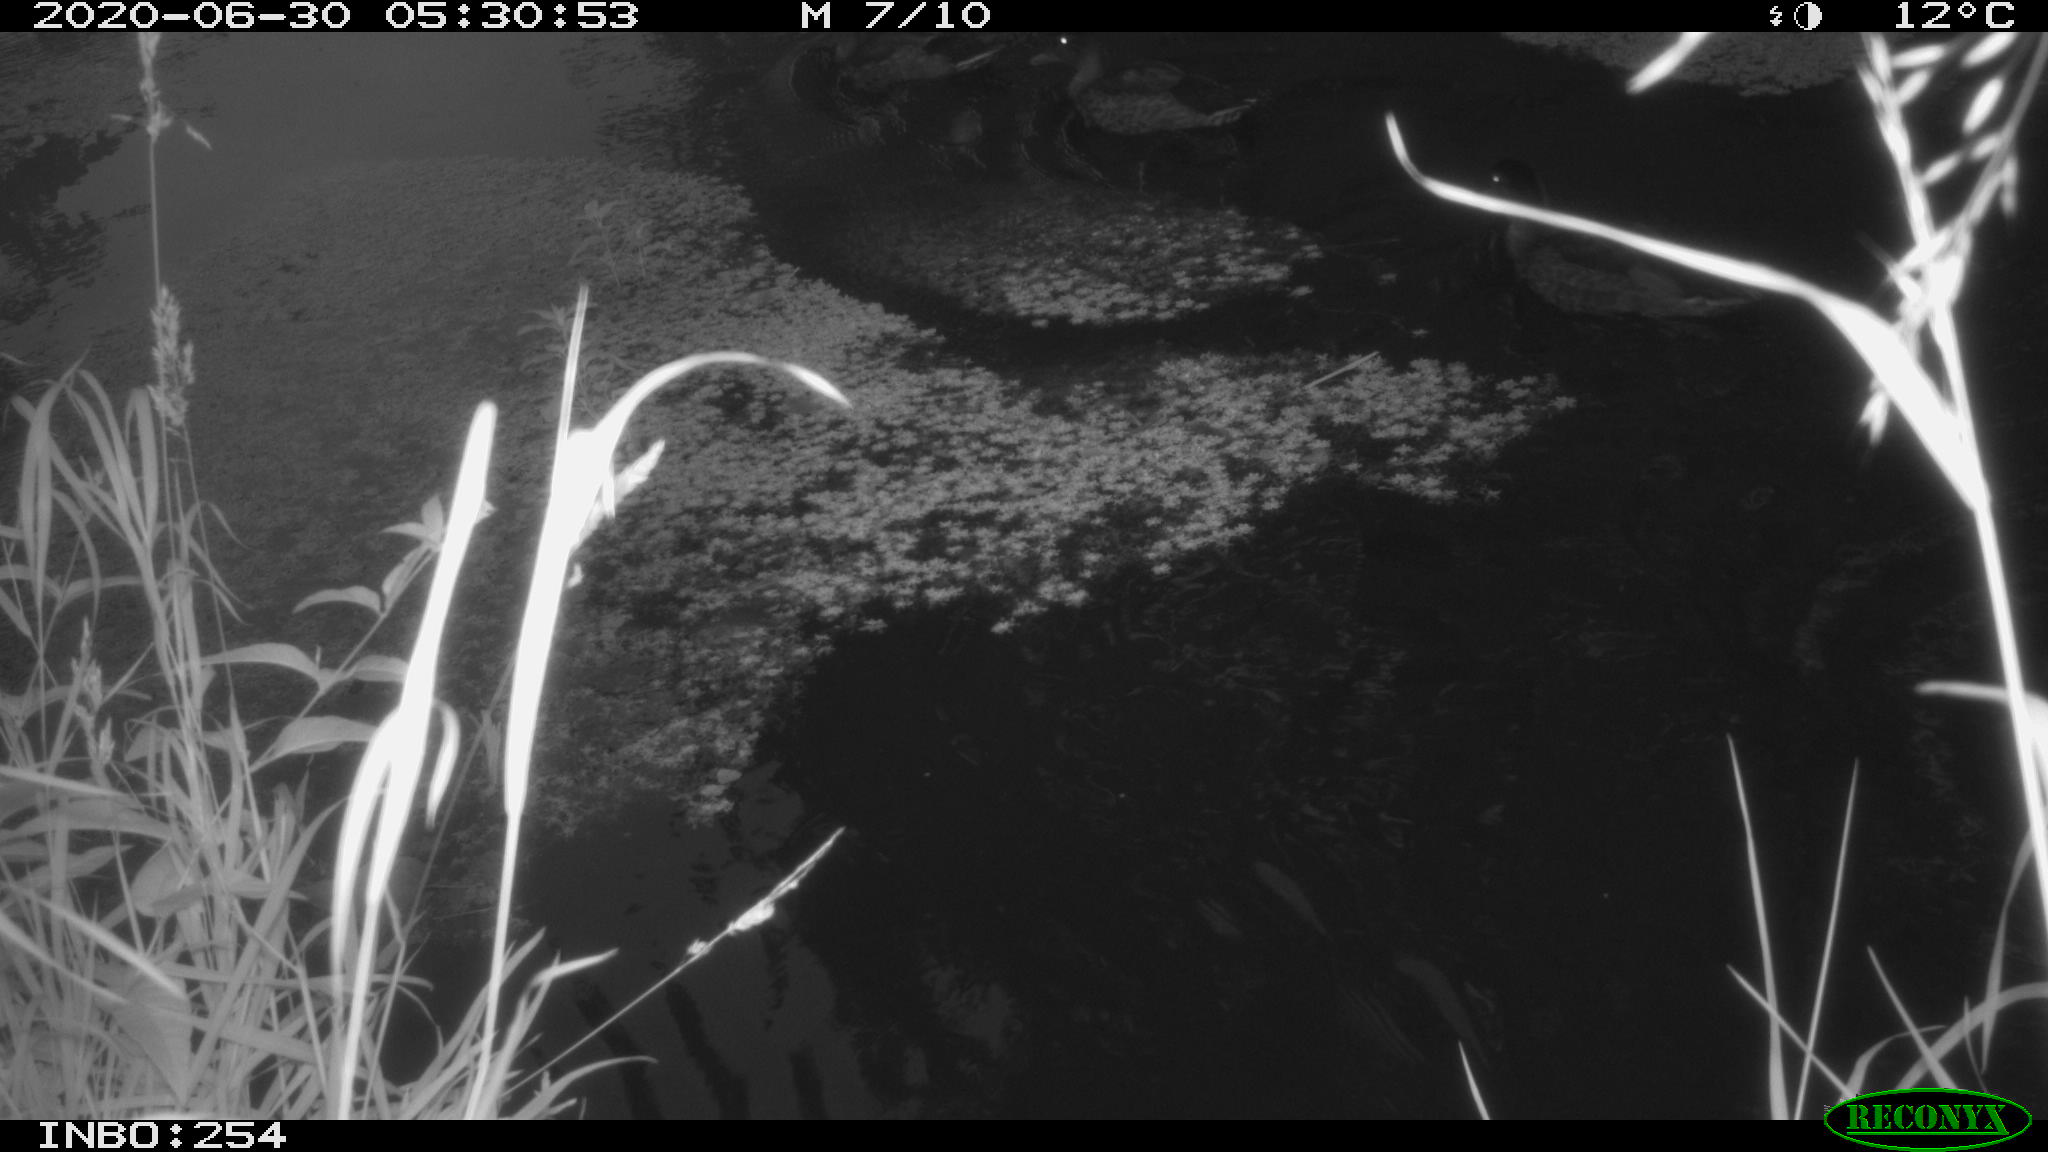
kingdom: Animalia
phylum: Chordata
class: Aves
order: Anseriformes
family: Anatidae
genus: Anas
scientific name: Anas platyrhynchos
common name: Mallard
